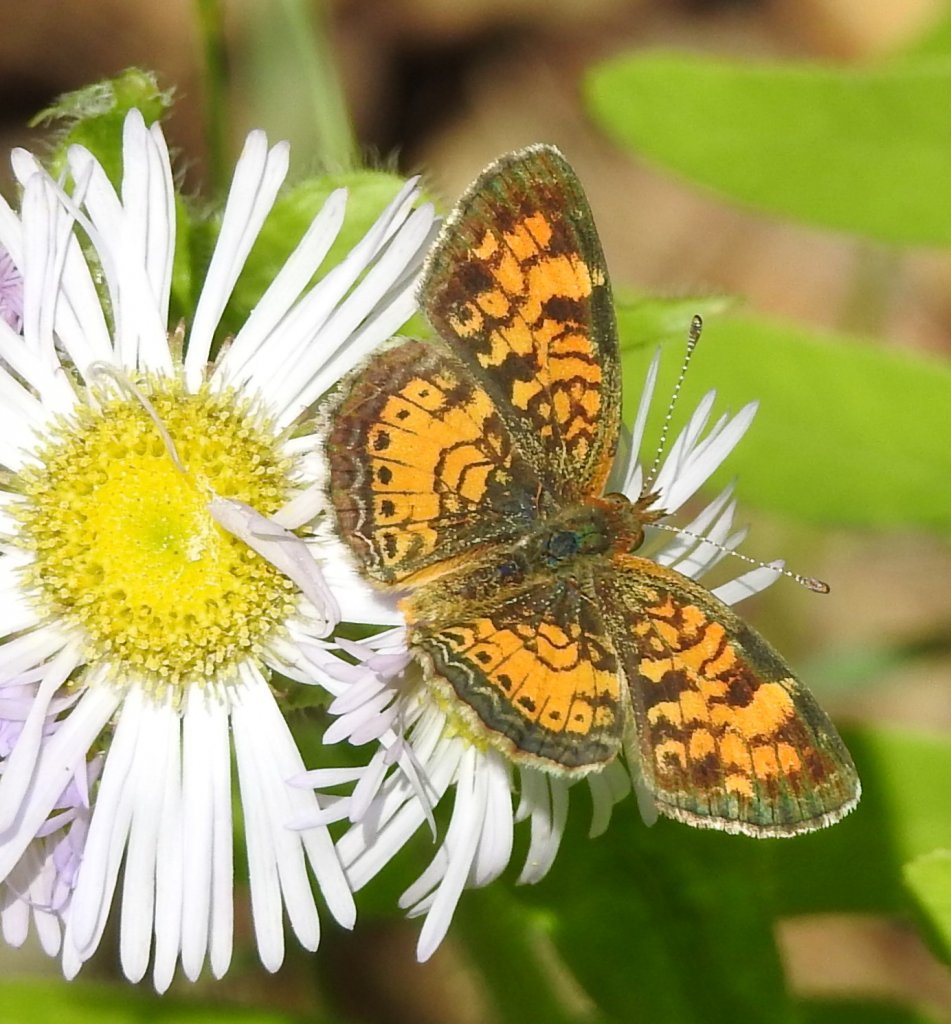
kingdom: Animalia
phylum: Arthropoda
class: Insecta
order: Lepidoptera
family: Nymphalidae
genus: Phyciodes
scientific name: Phyciodes
